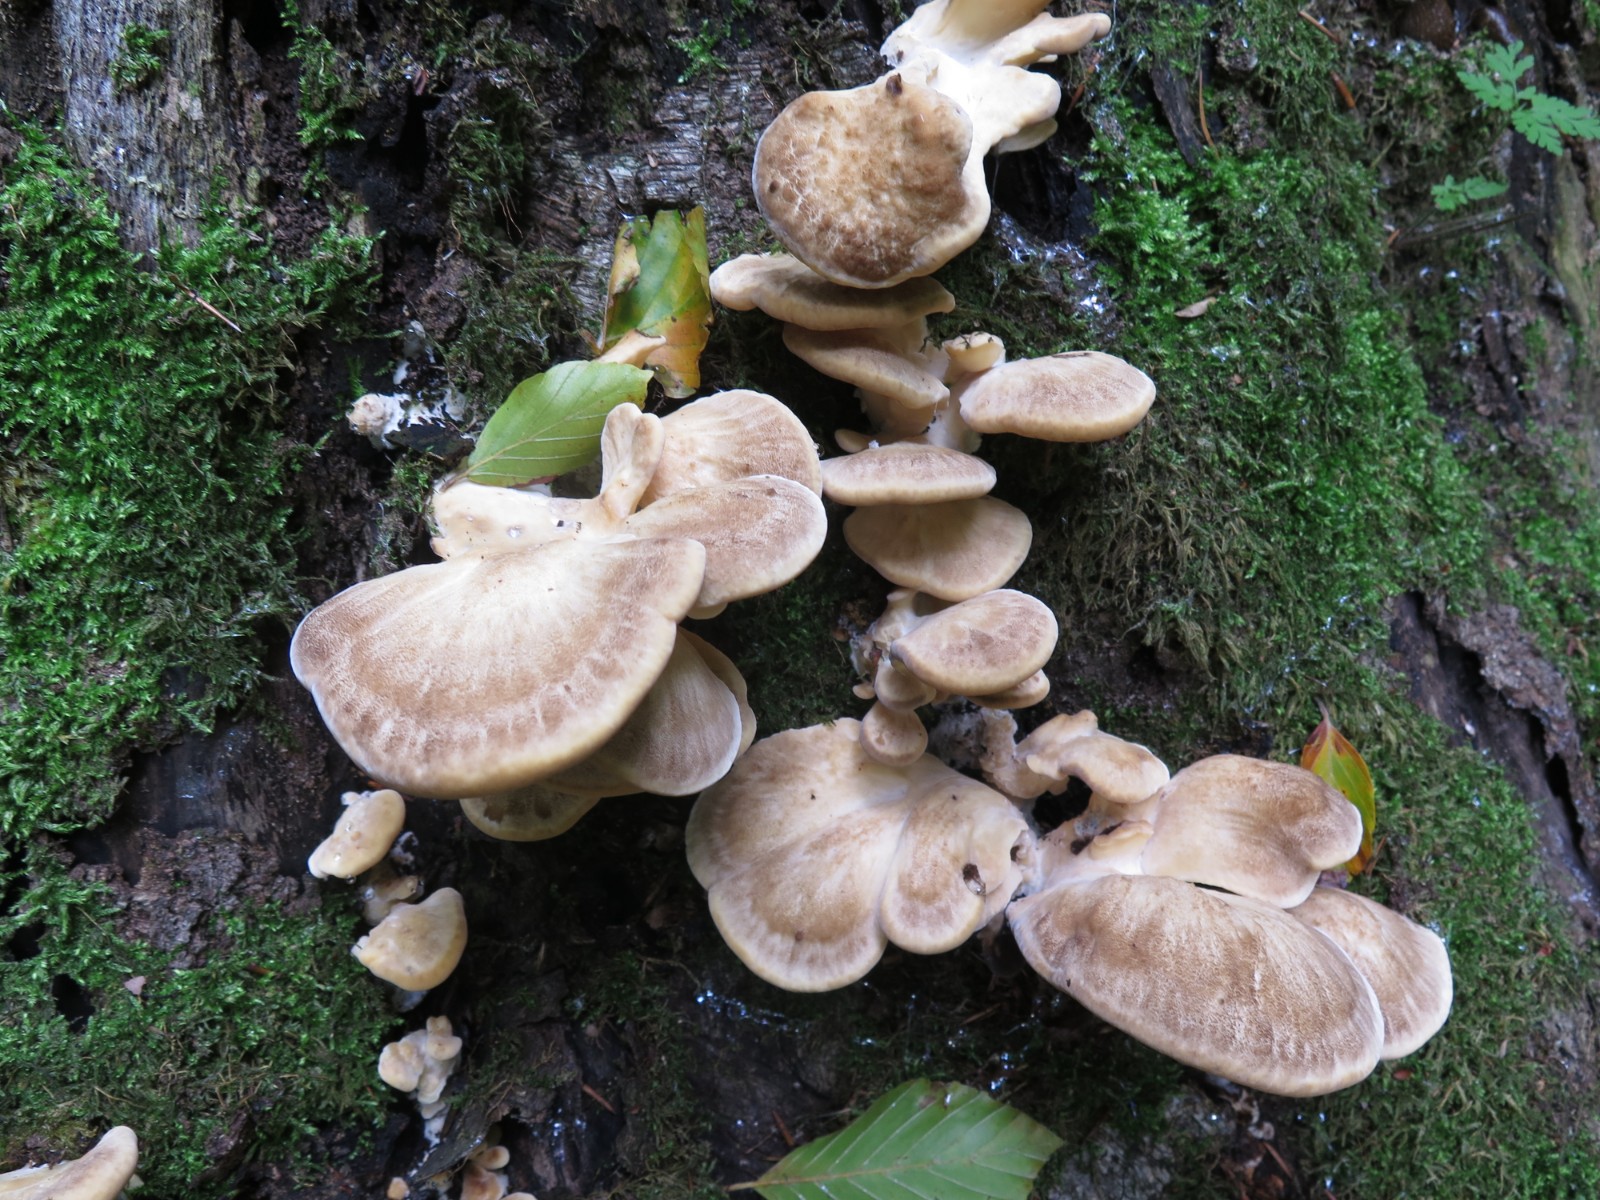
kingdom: Fungi
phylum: Basidiomycota
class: Agaricomycetes
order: Polyporales
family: Meripilaceae
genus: Meripilus
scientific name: Meripilus giganteus
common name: kæmpeporesvamp
